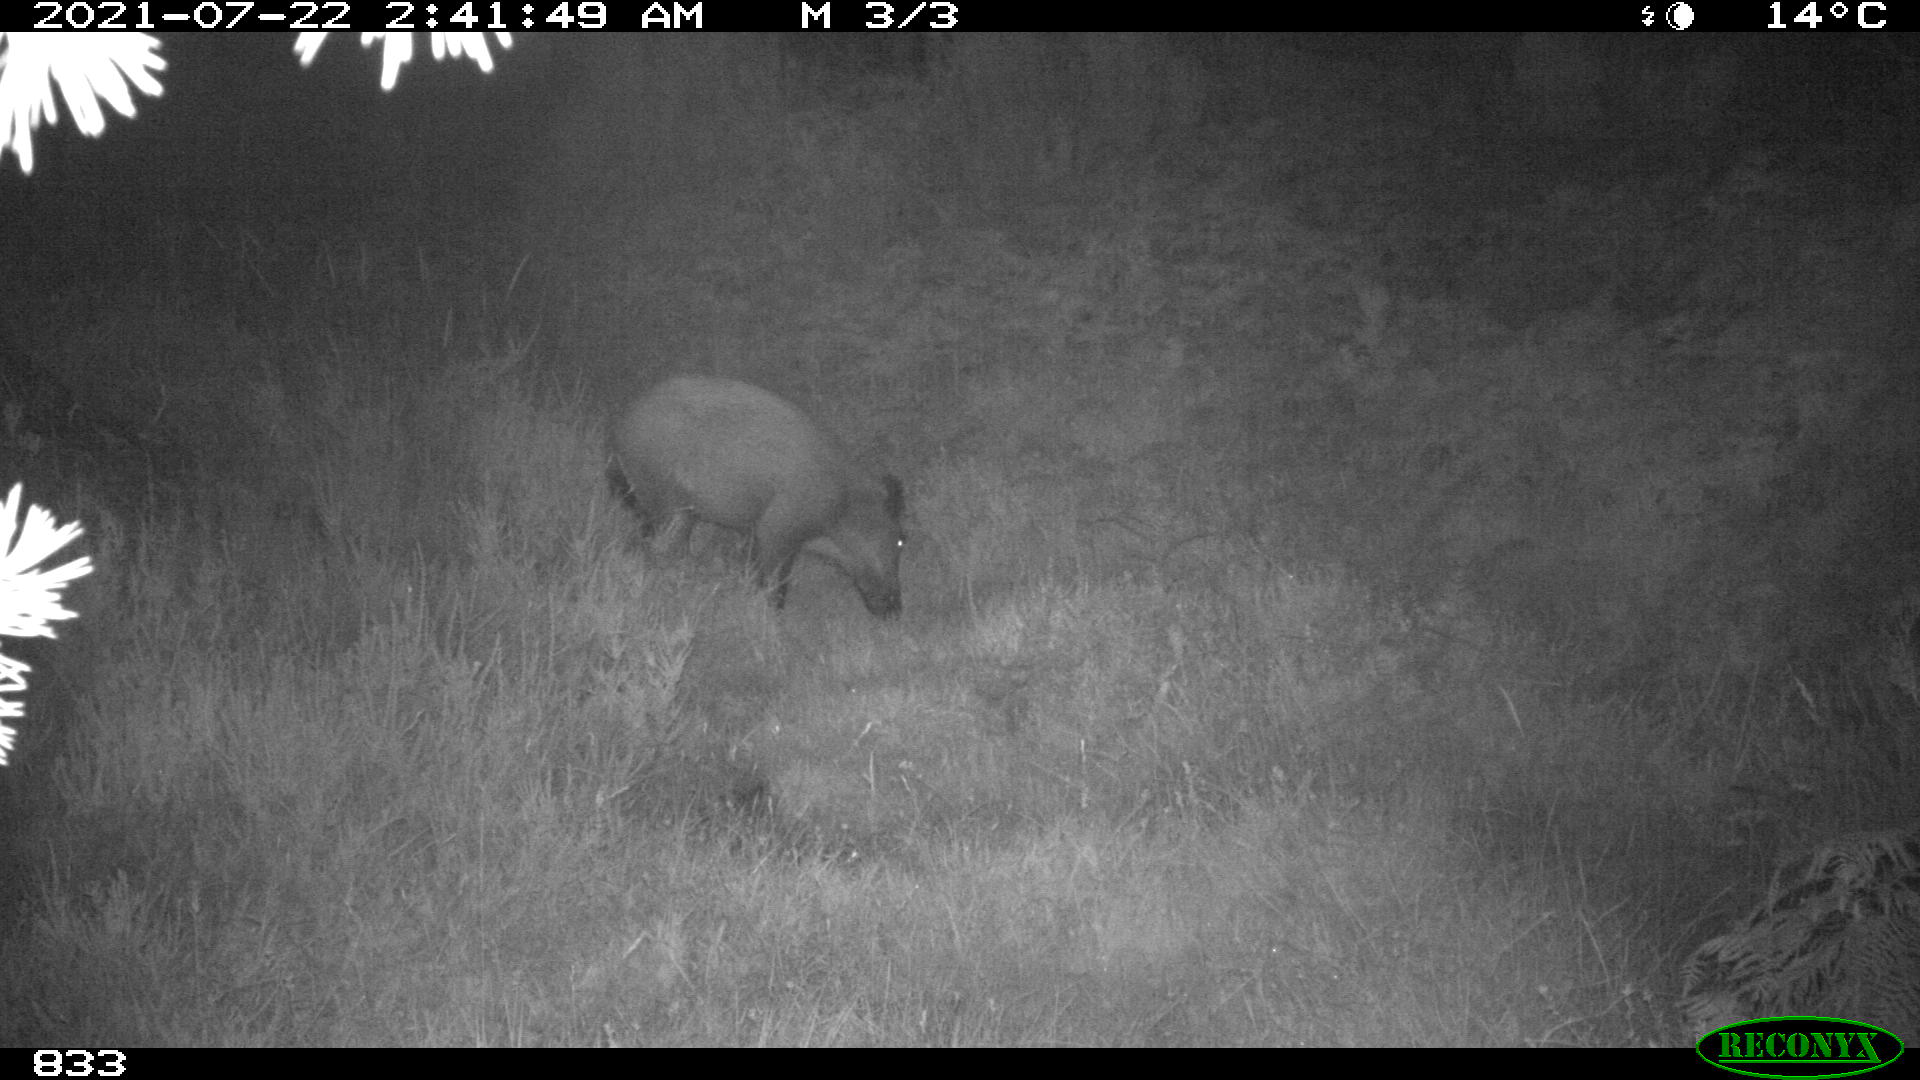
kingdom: Animalia
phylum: Chordata
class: Mammalia
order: Artiodactyla
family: Suidae
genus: Sus
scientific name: Sus scrofa
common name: Wild boar
